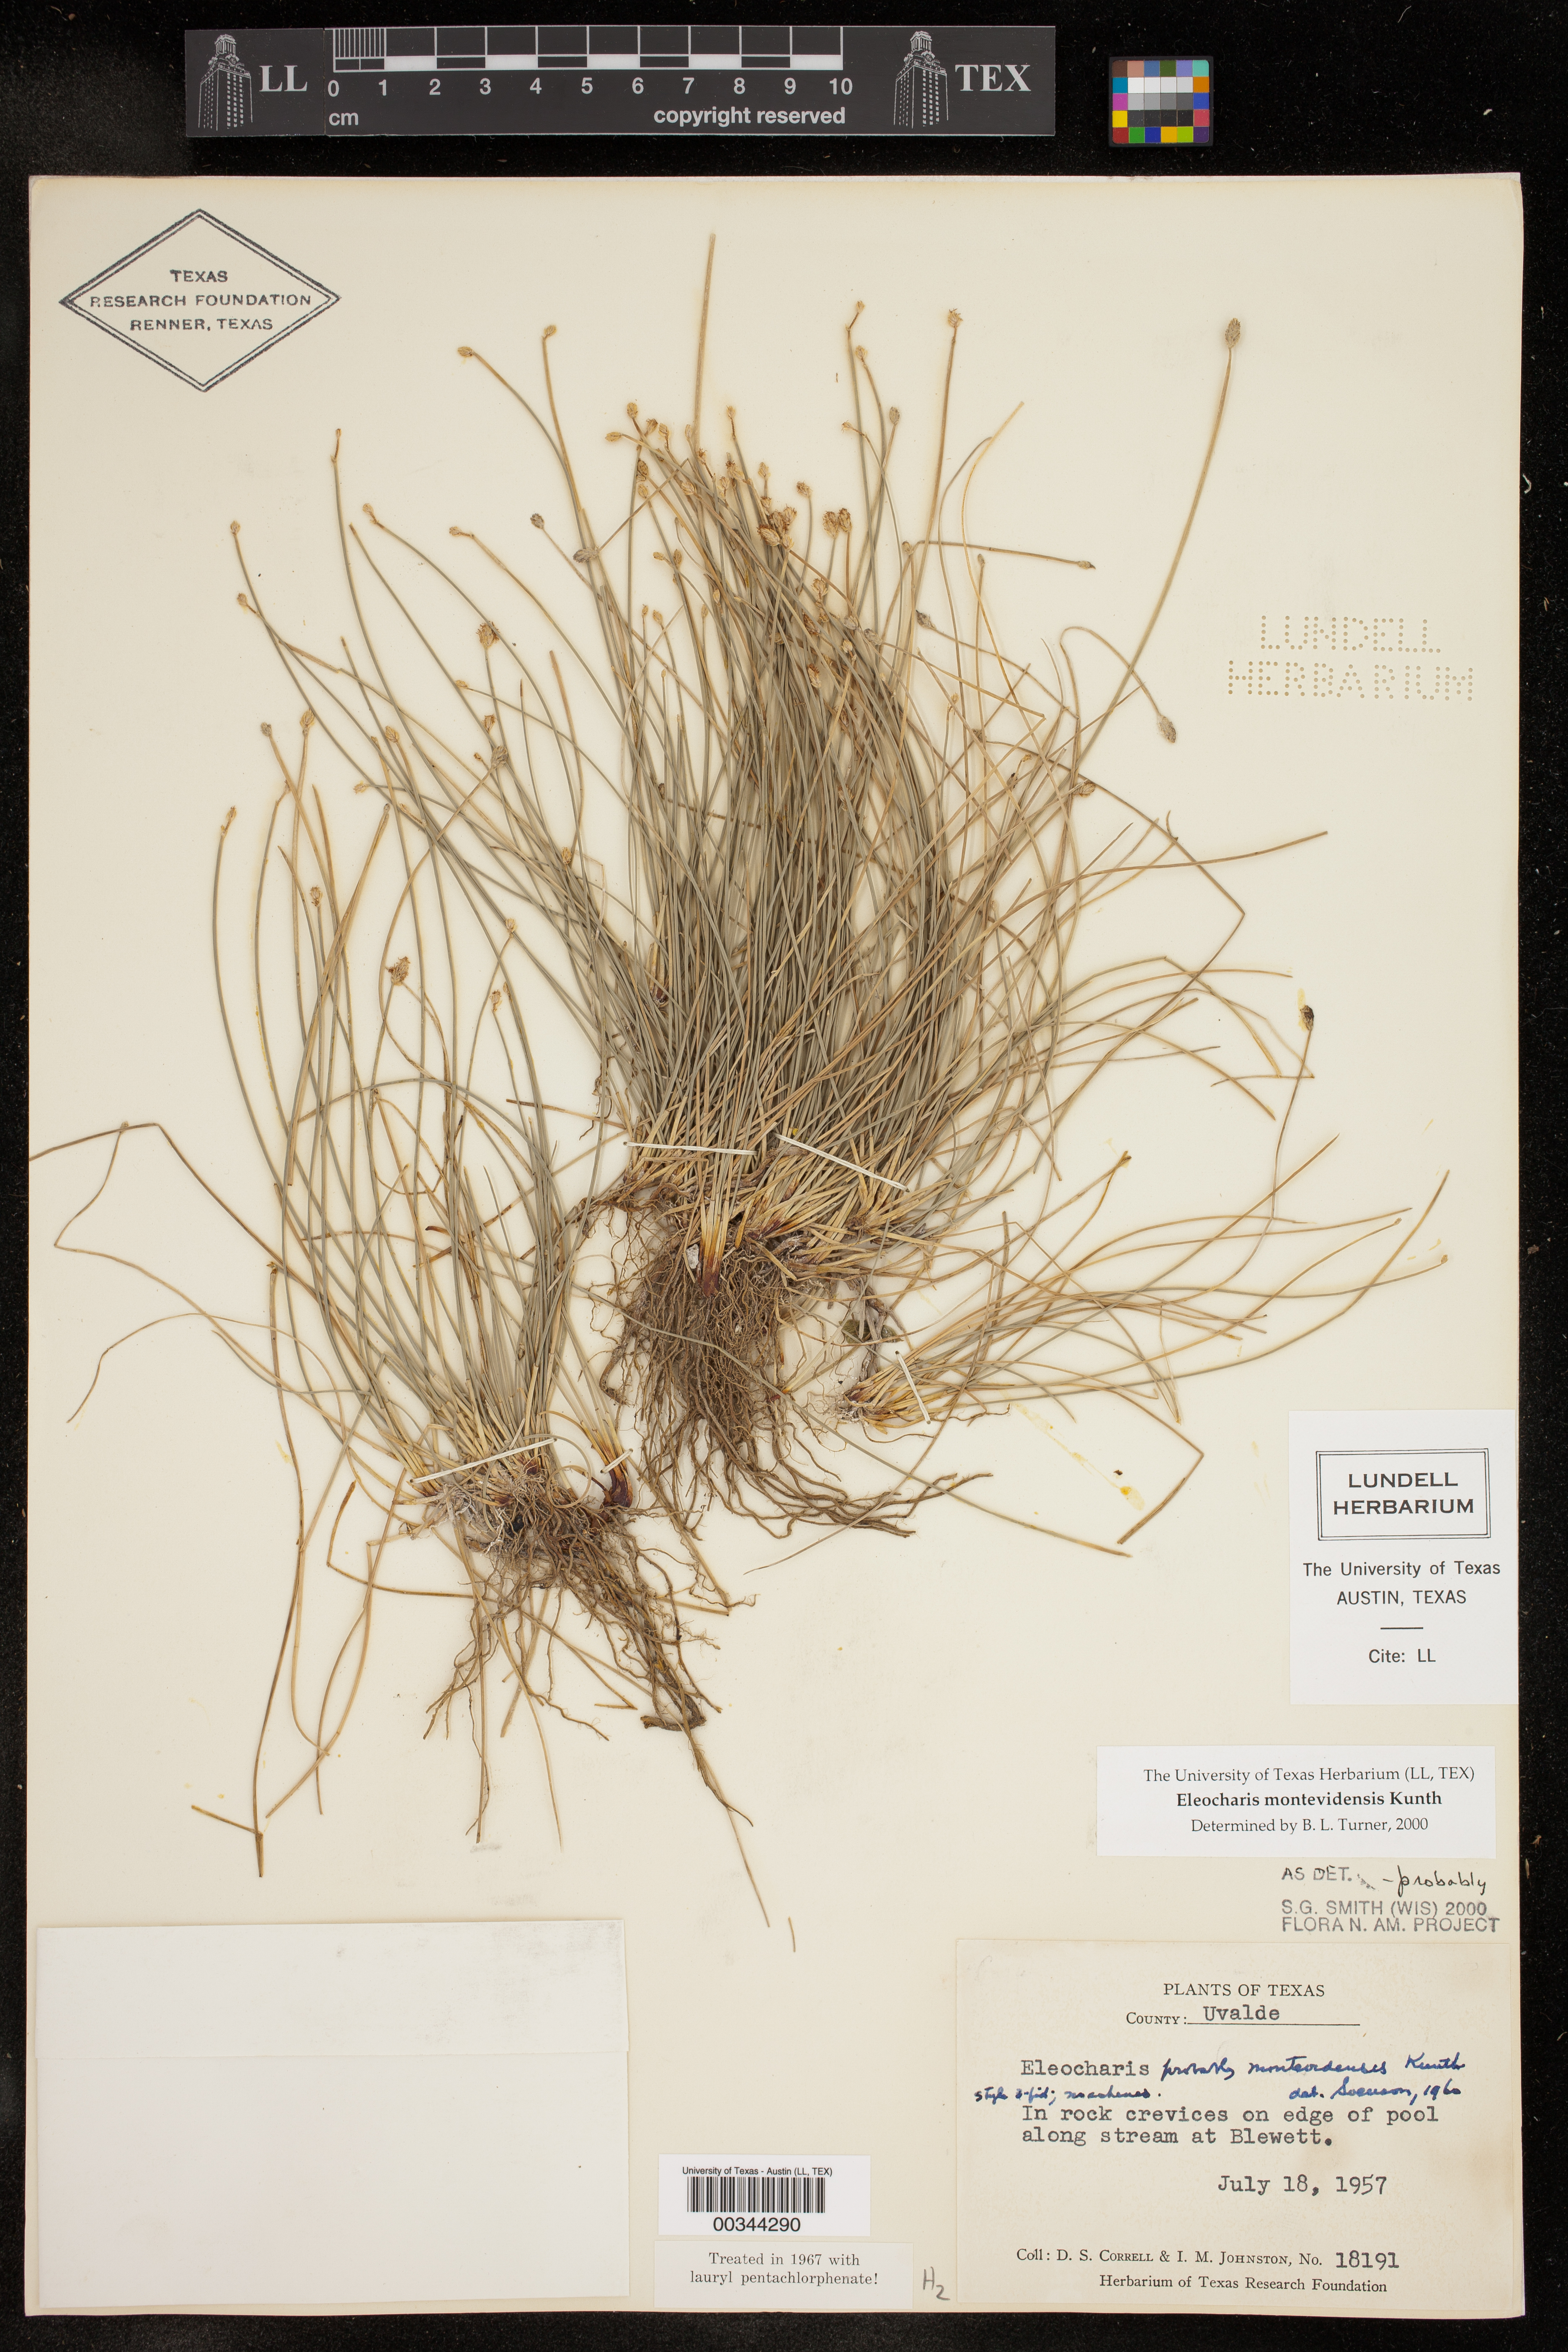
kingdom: Plantae
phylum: Tracheophyta
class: Liliopsida
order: Poales
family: Cyperaceae
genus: Eleocharis
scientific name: Eleocharis montevidensis
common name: Sand spike-rush
